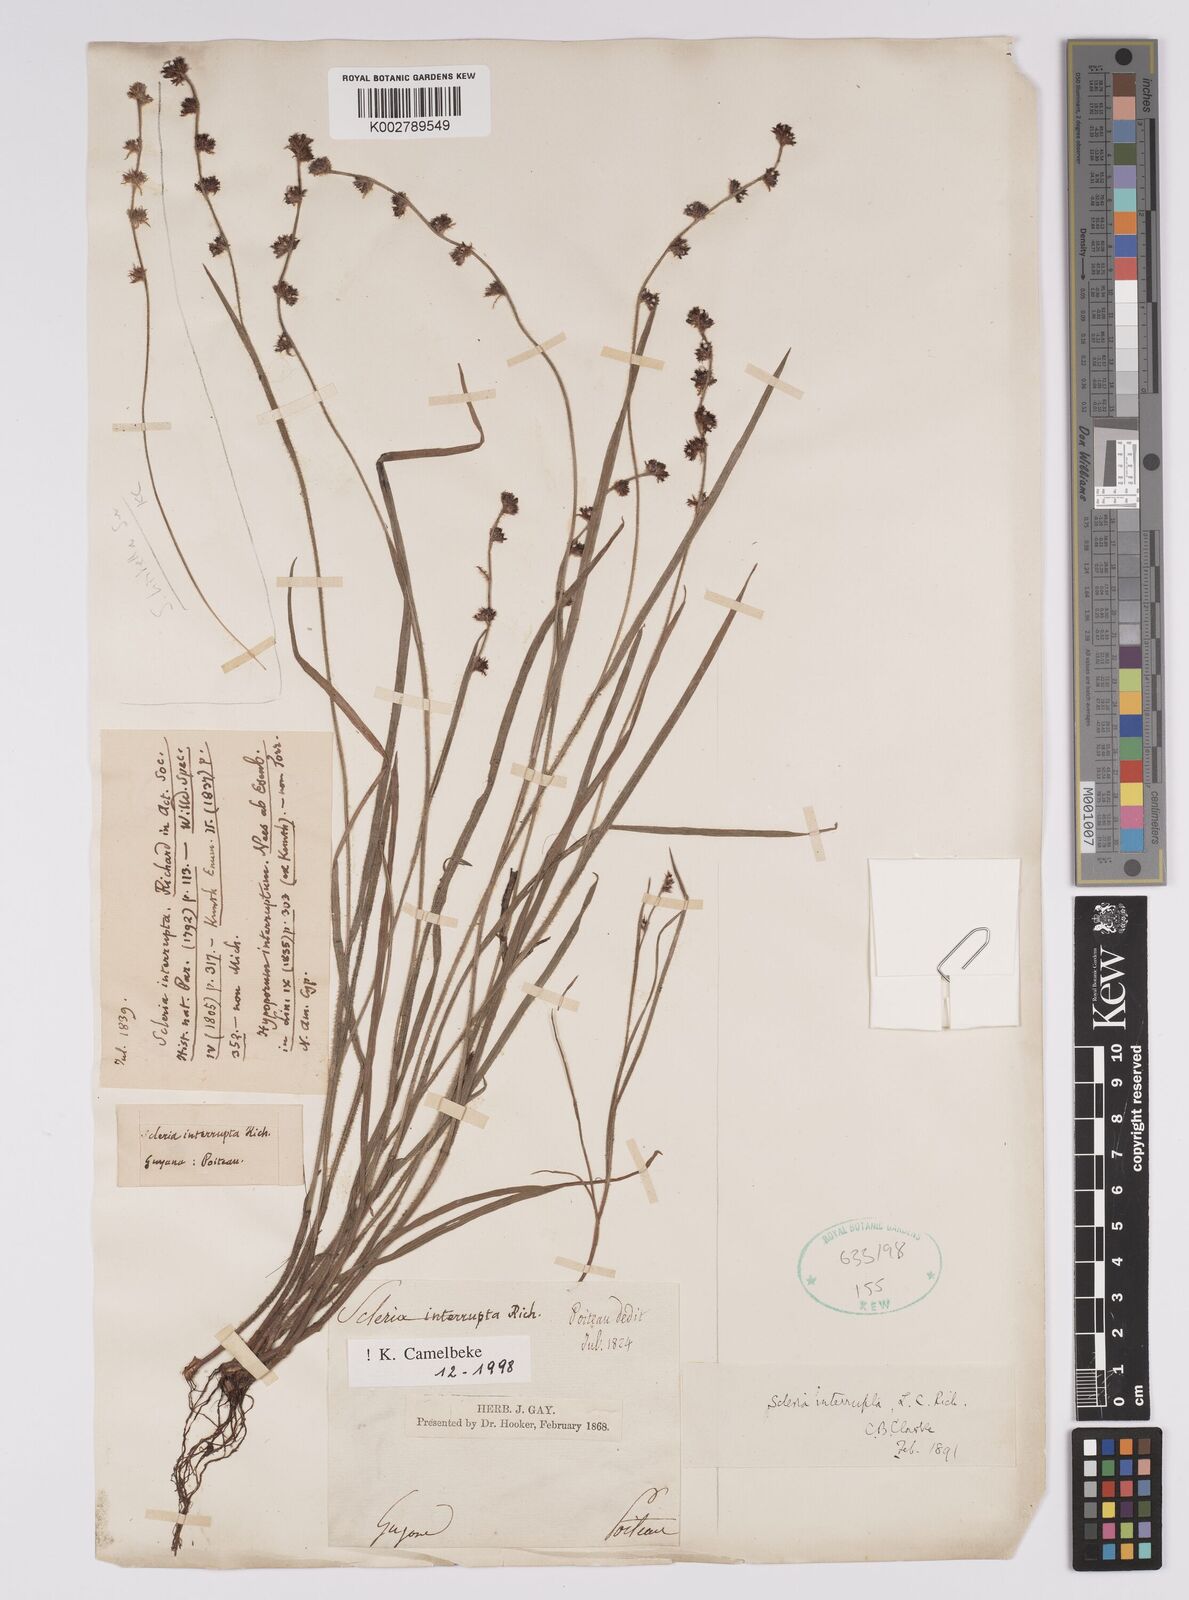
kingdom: Plantae
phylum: Tracheophyta
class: Liliopsida
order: Poales
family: Cyperaceae
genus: Scleria
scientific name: Scleria interrupta
